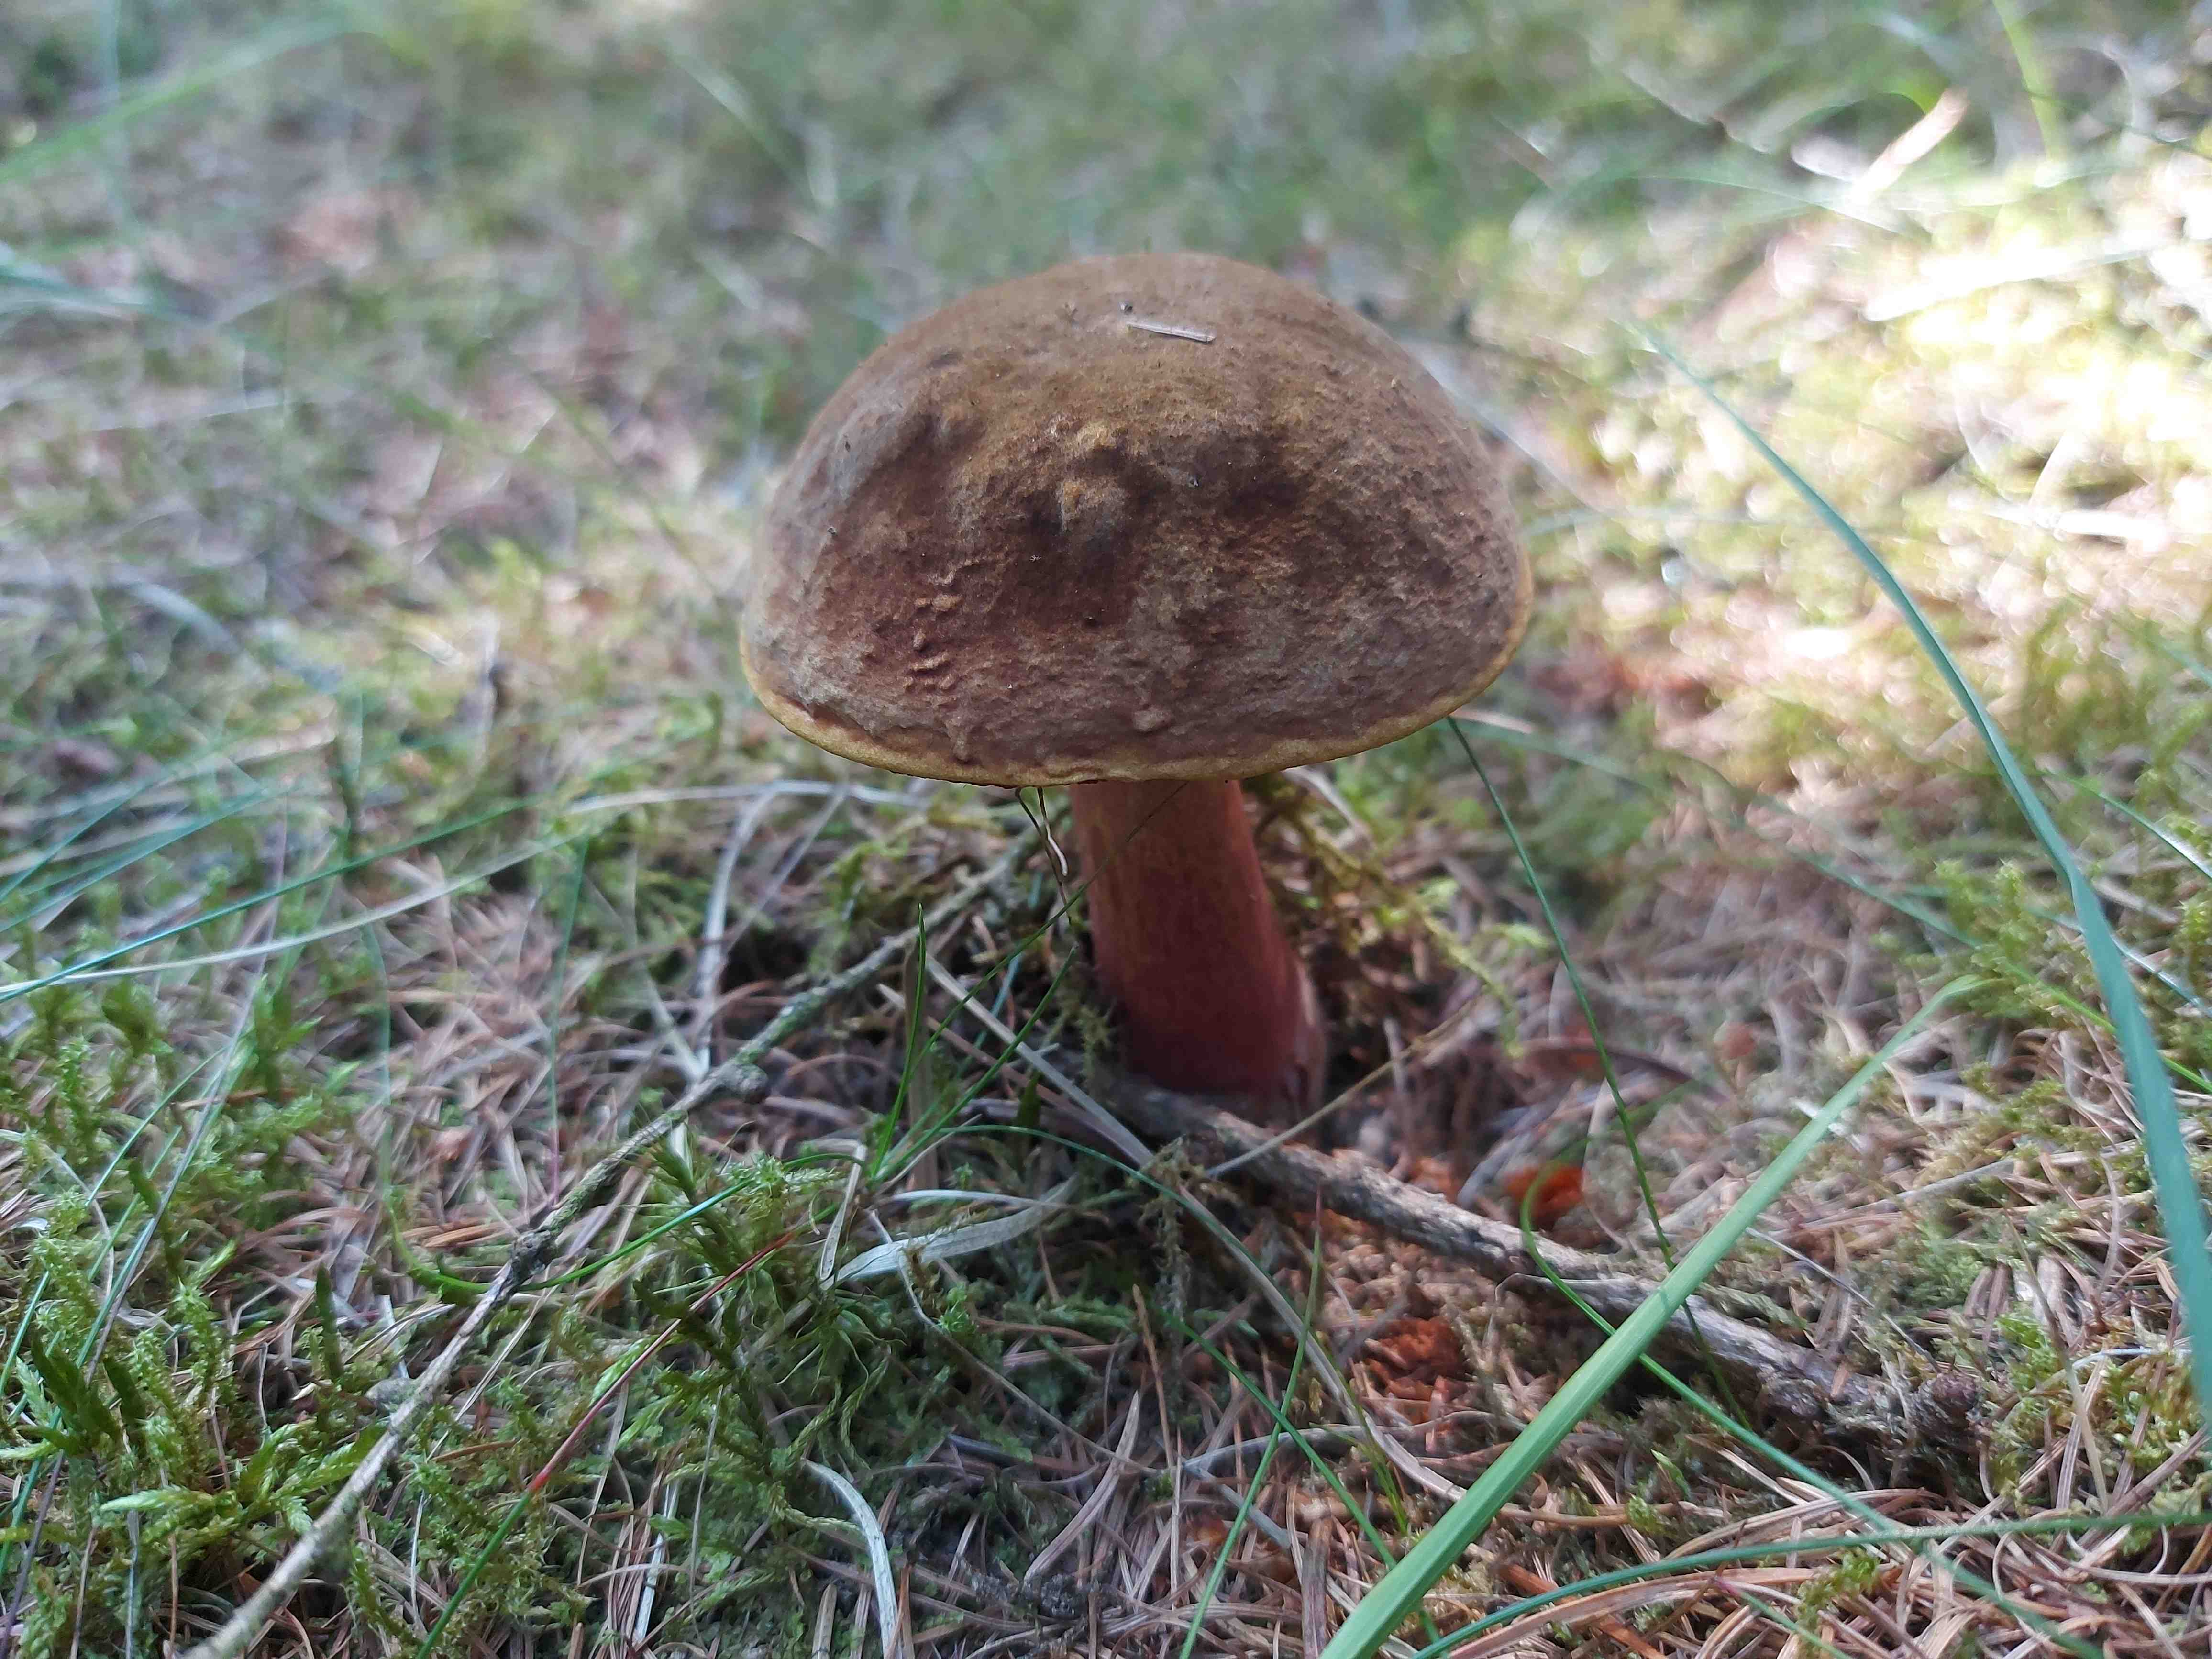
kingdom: Fungi
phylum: Basidiomycota
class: Agaricomycetes
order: Boletales
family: Boletaceae
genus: Neoboletus
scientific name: Neoboletus erythropus
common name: punktstokket indigorørhat
